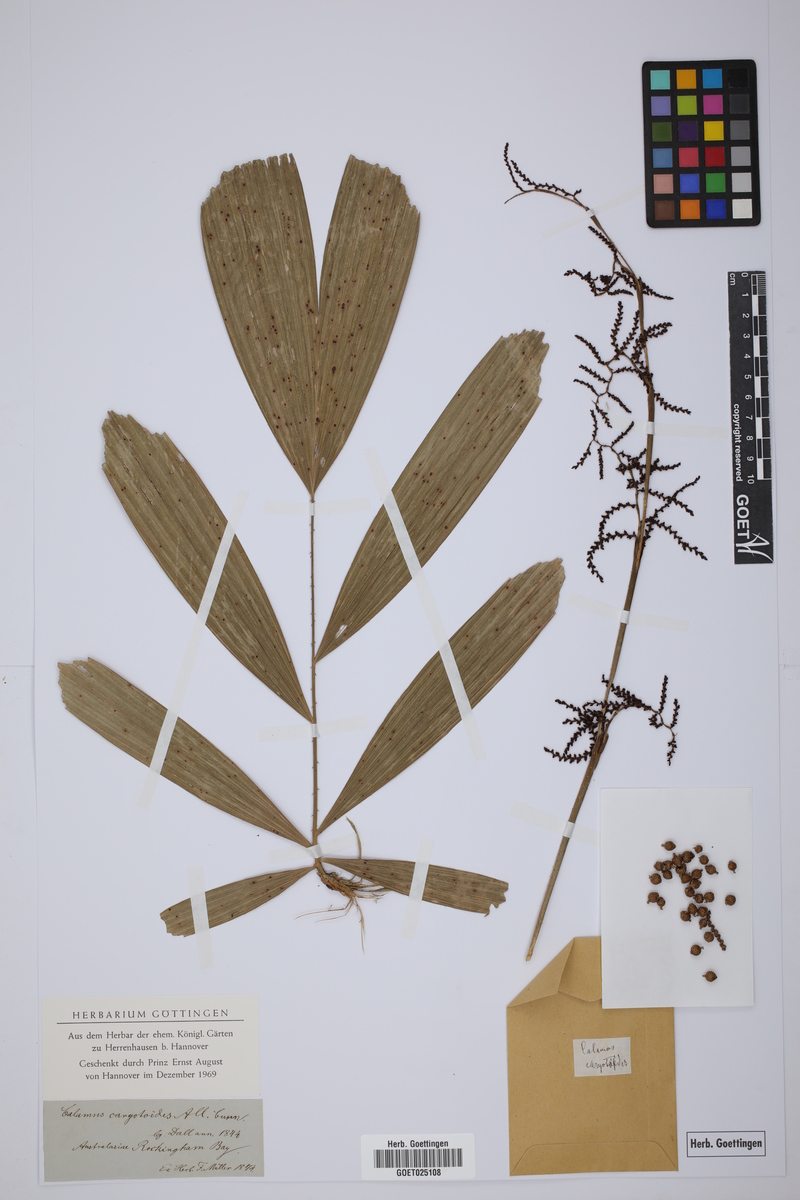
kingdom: Plantae
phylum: Tracheophyta
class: Liliopsida
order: Arecales
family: Arecaceae
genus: Calamus
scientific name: Calamus caryotoides
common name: Fishtail lawyer cane
